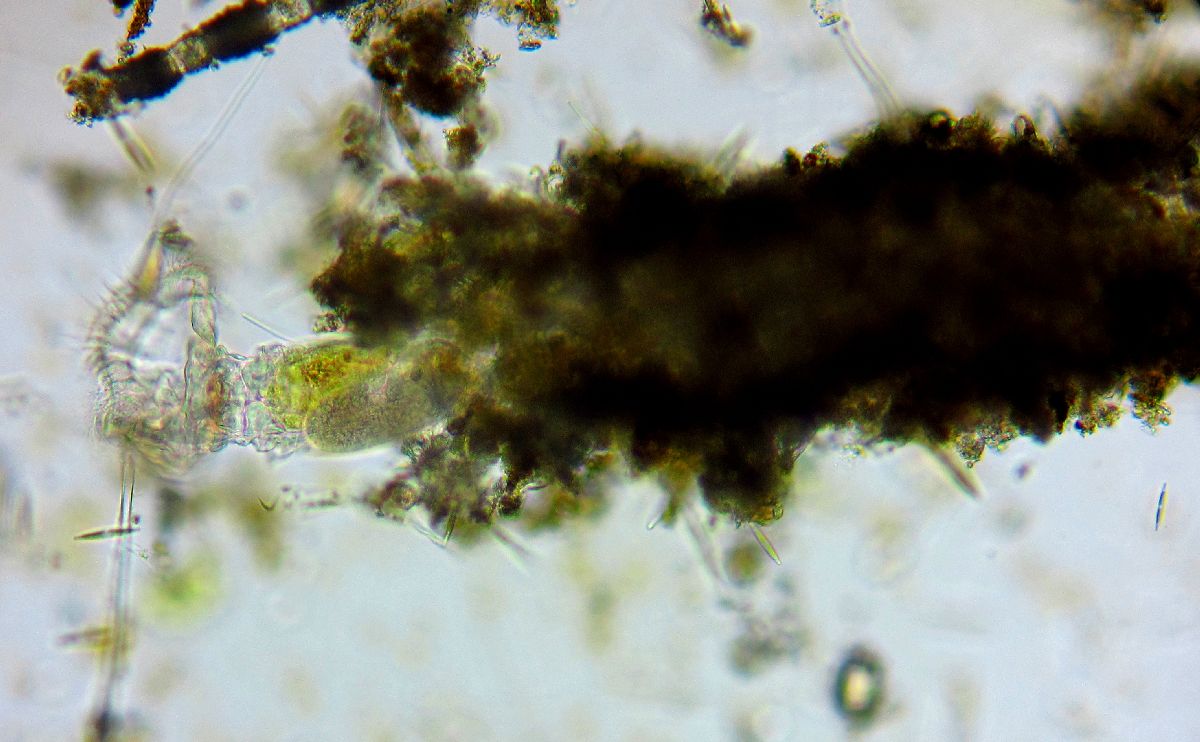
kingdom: Animalia
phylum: Rotifera
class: Eurotatoria
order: Flosculariaceae
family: Flosculariidae
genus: Ptygura
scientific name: Ptygura crystallina
